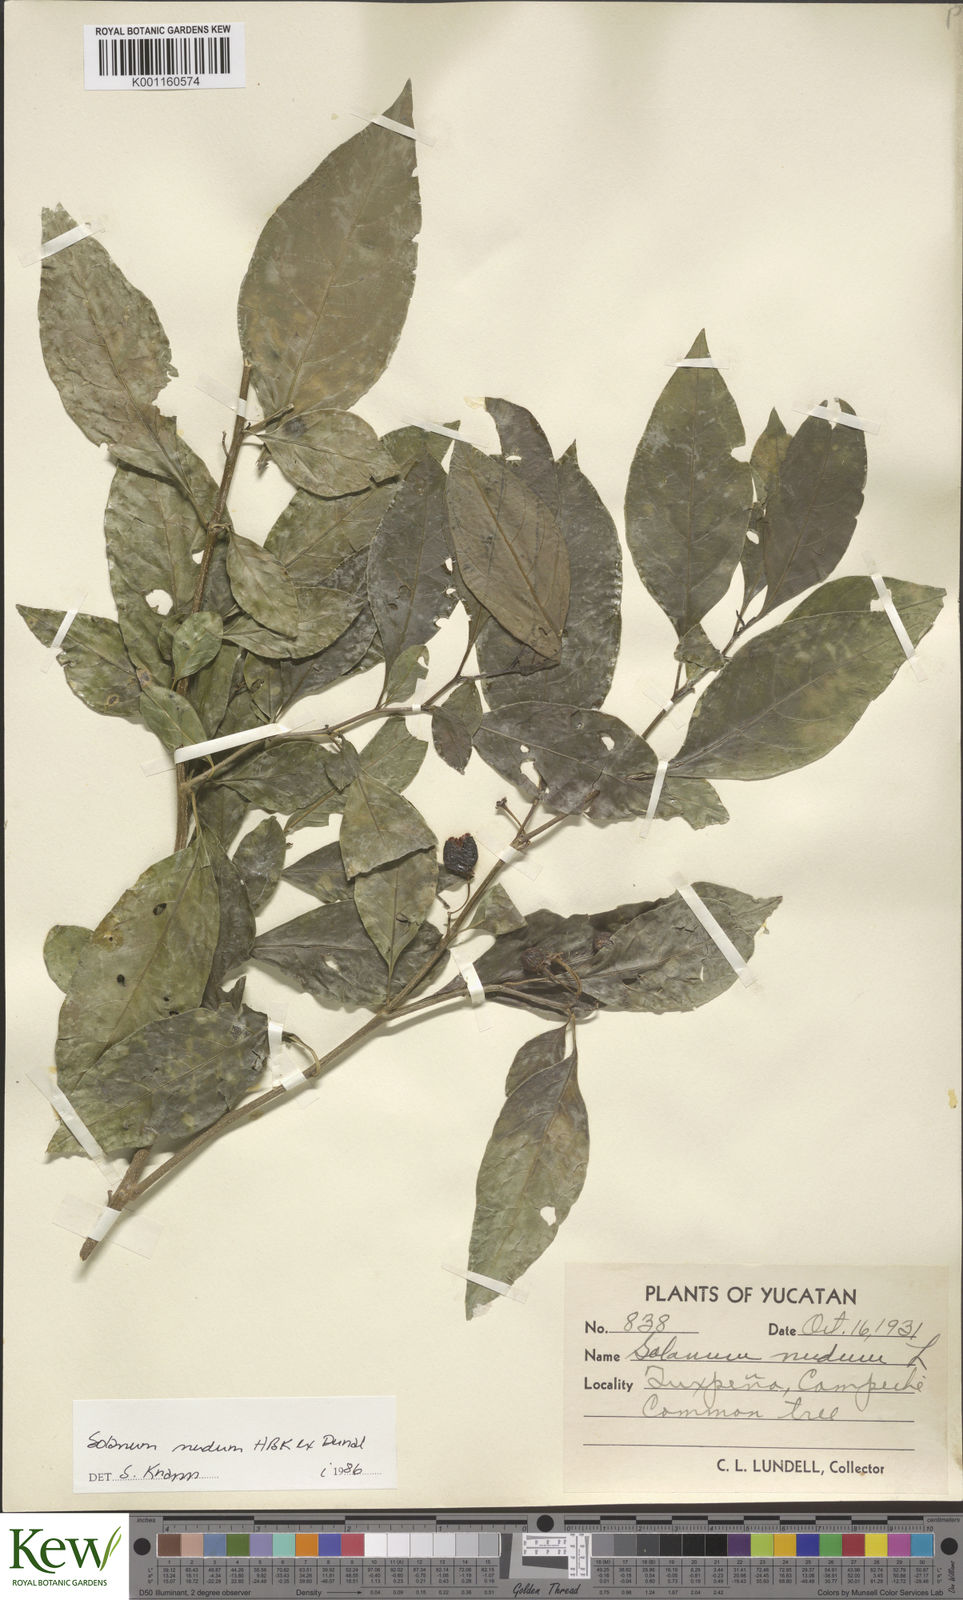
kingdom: Plantae
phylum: Tracheophyta
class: Magnoliopsida
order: Solanales
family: Solanaceae
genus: Solanum
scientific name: Solanum nudum
